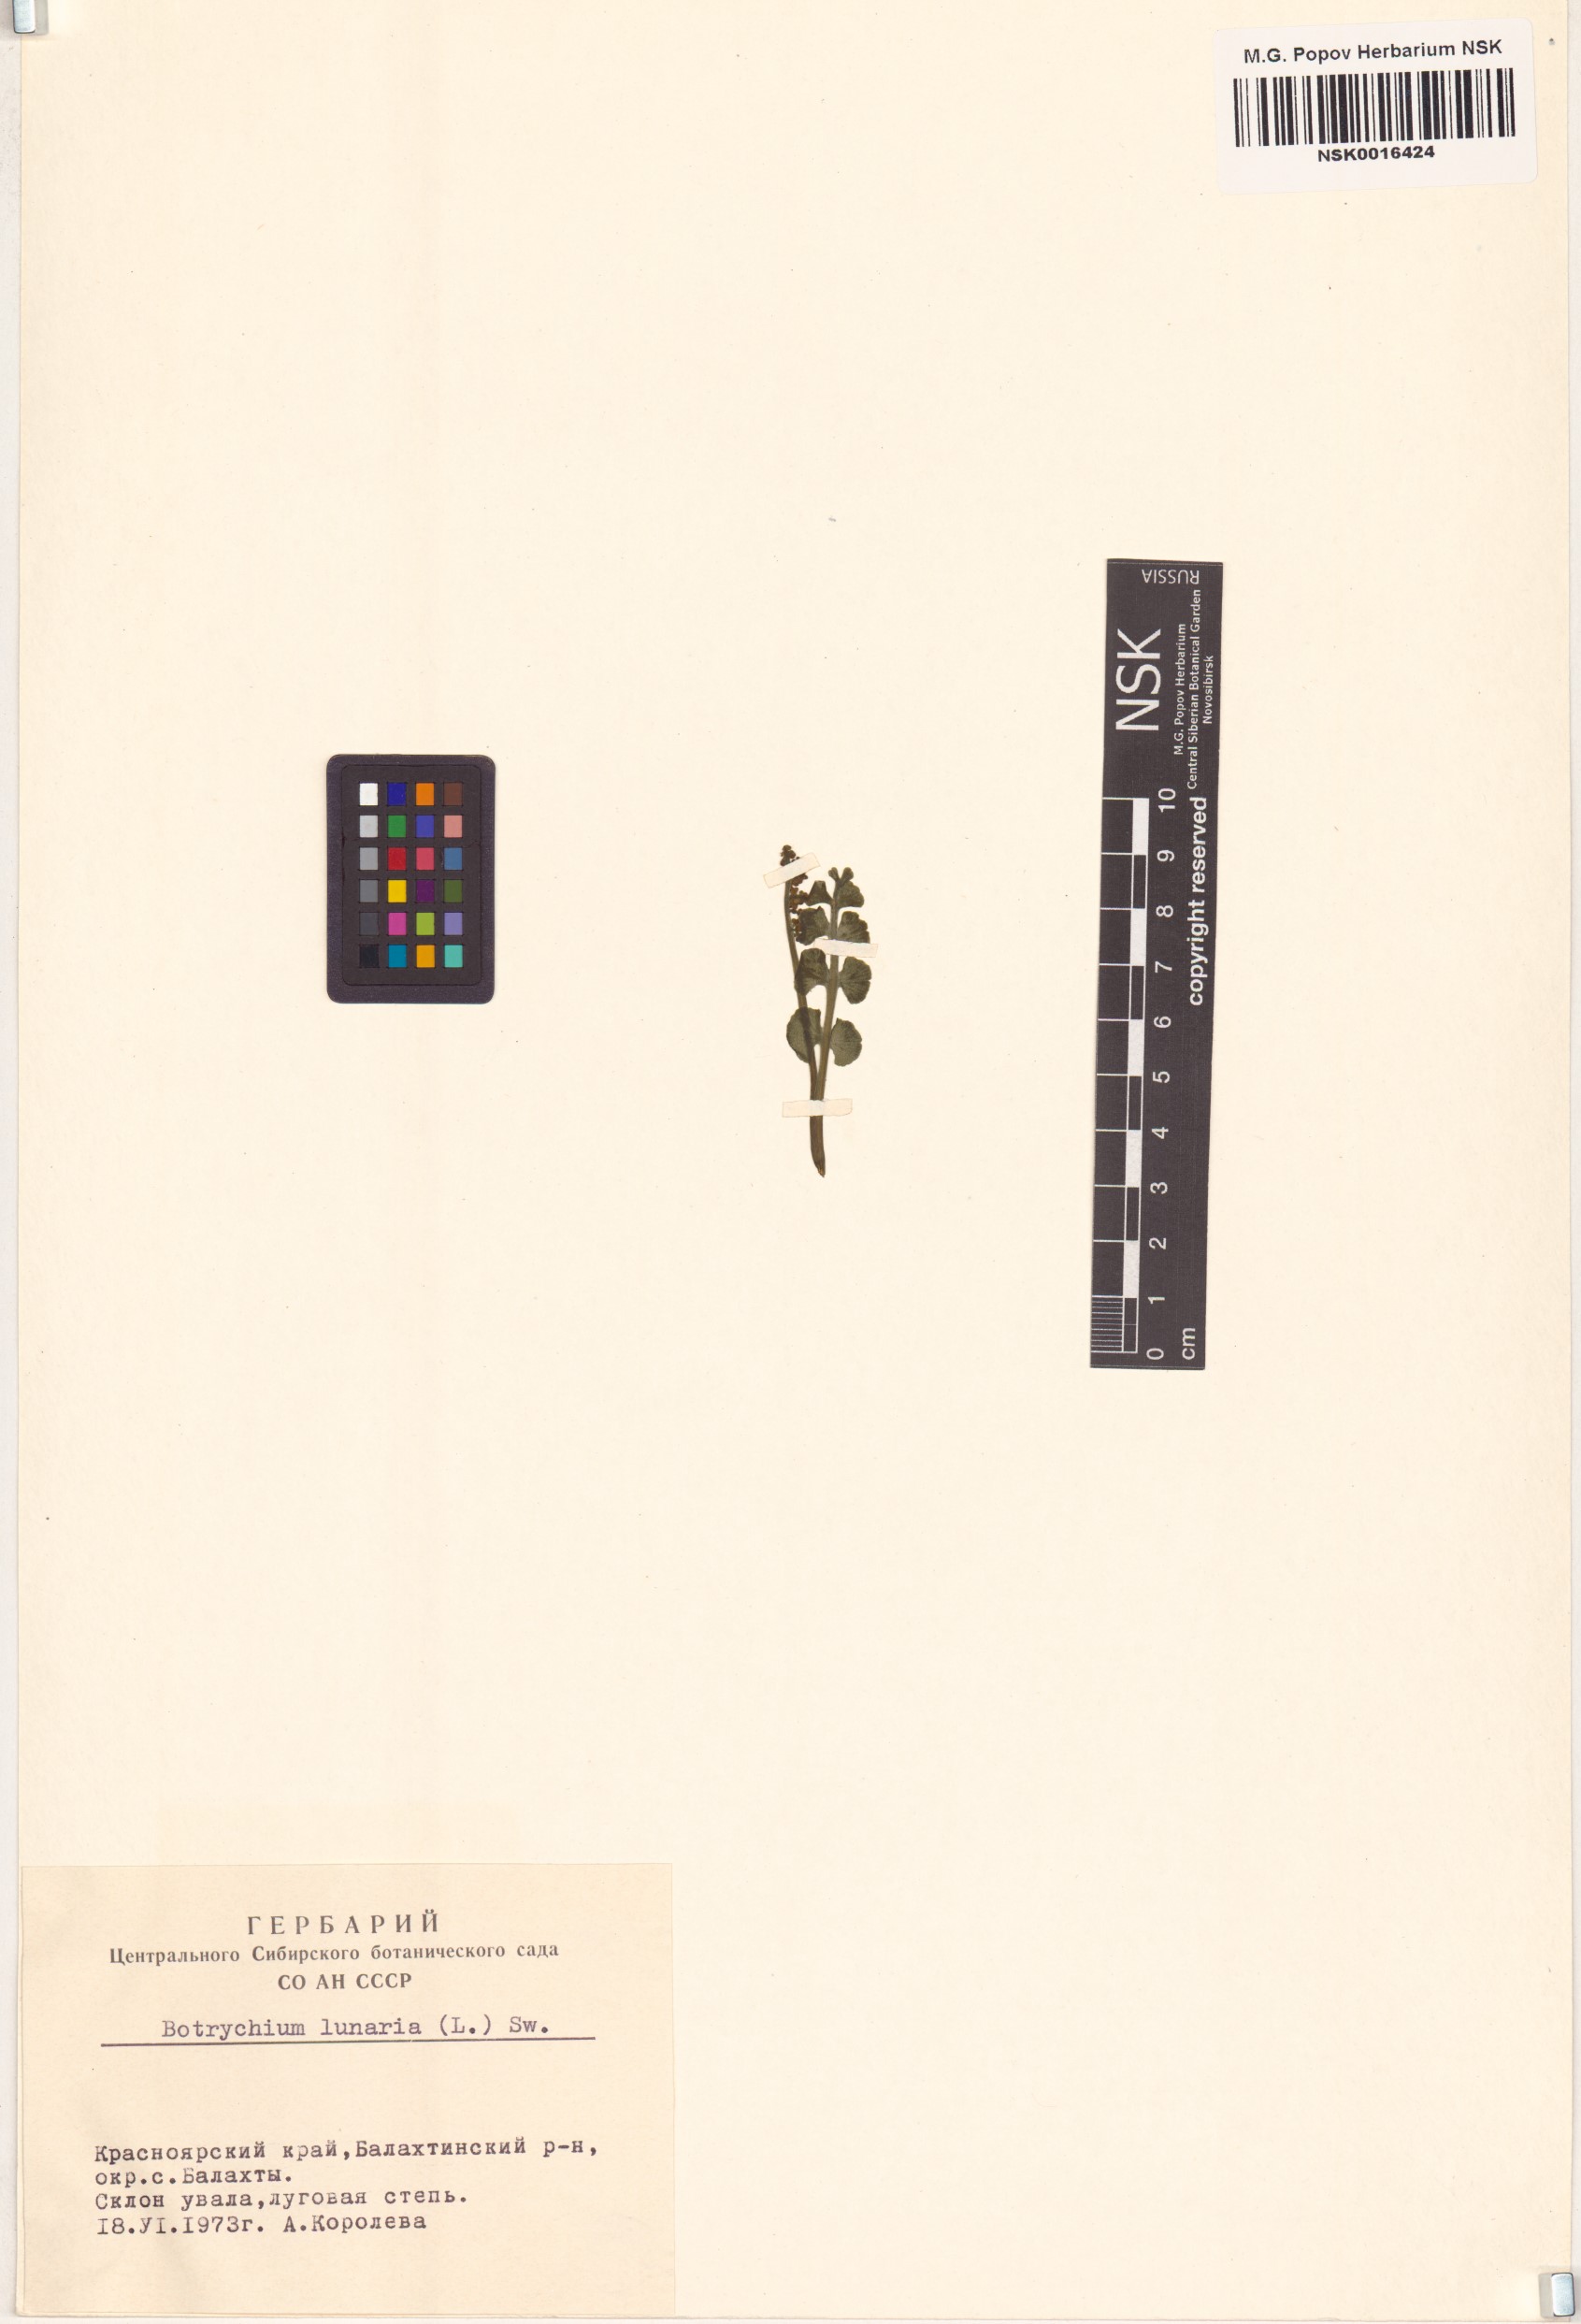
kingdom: Plantae
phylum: Tracheophyta
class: Polypodiopsida
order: Ophioglossales
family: Ophioglossaceae
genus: Botrychium
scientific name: Botrychium lunaria
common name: Moonwort
